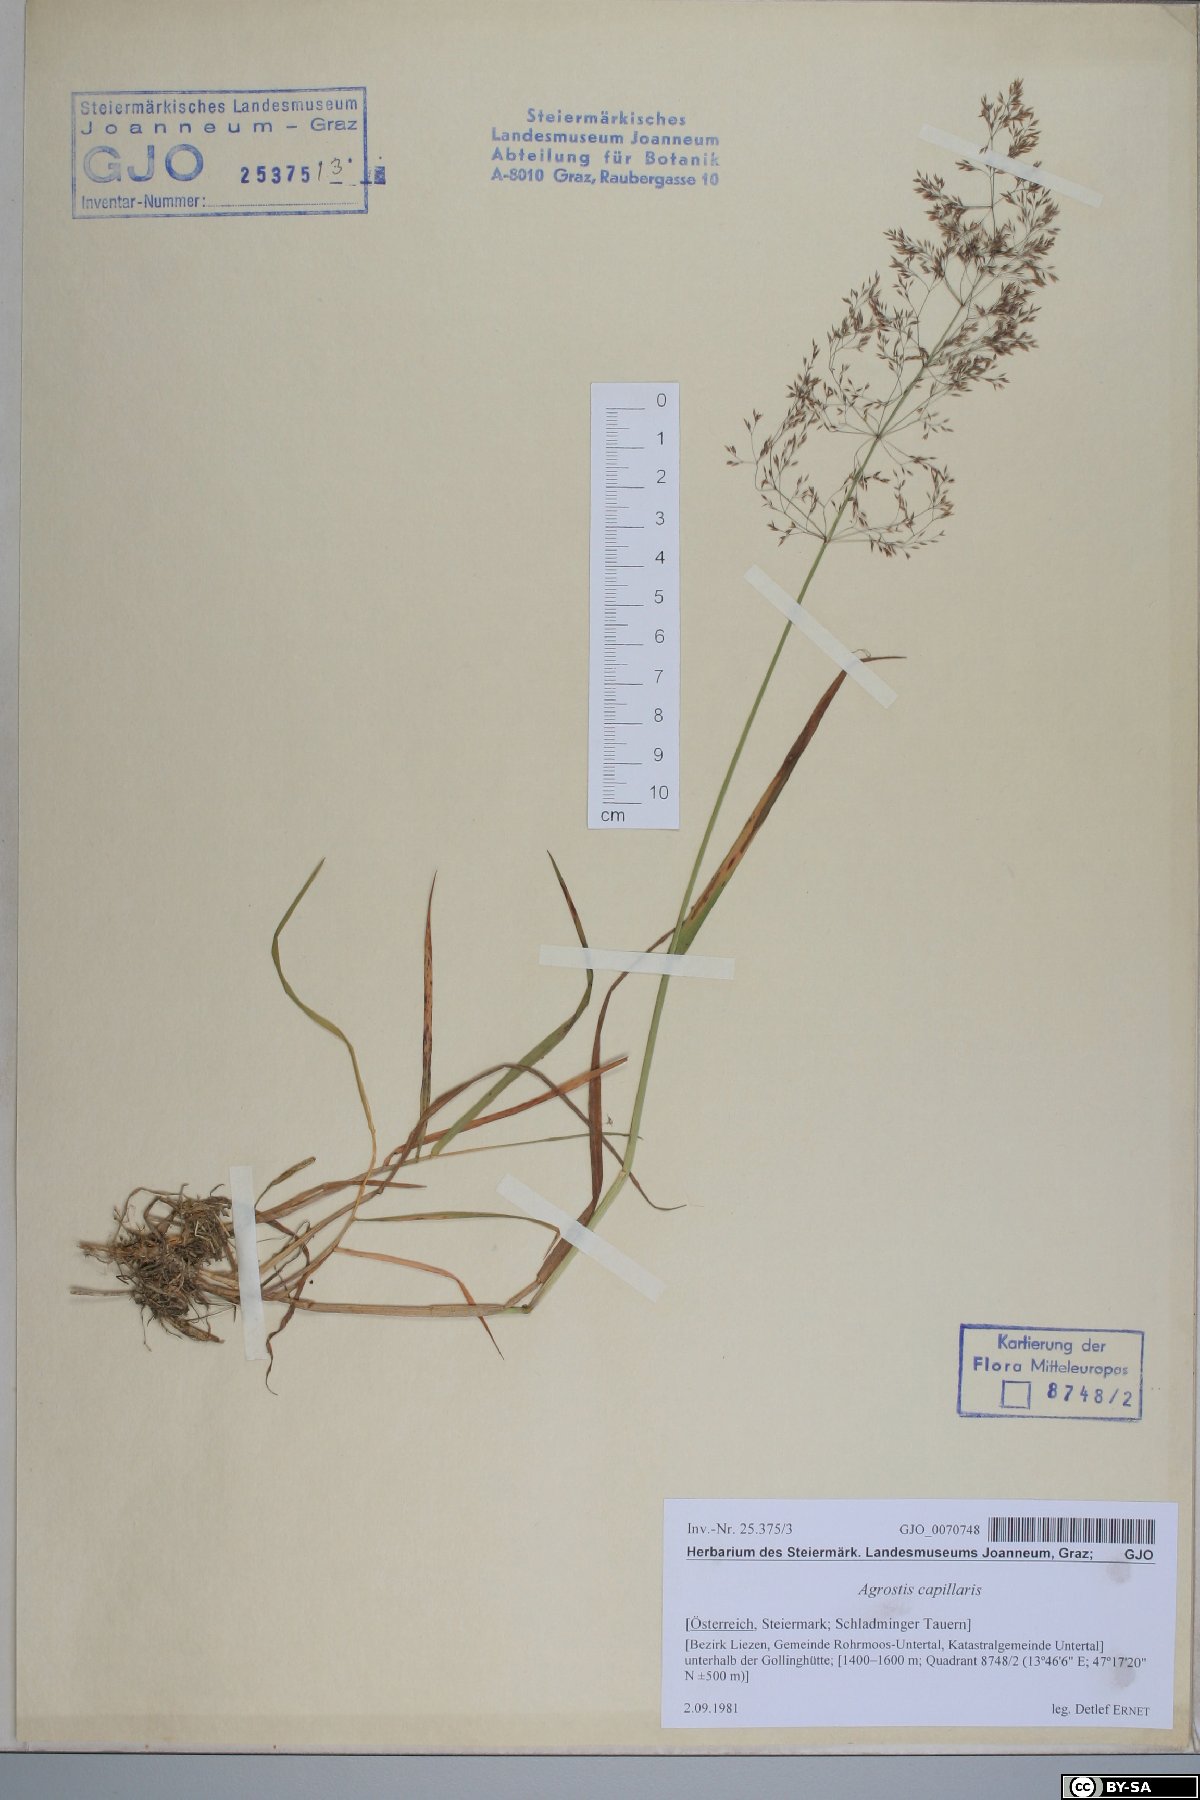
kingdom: Plantae
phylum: Tracheophyta
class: Liliopsida
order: Poales
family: Poaceae
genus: Agrostis
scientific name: Agrostis capillaris
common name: Colonial bentgrass
